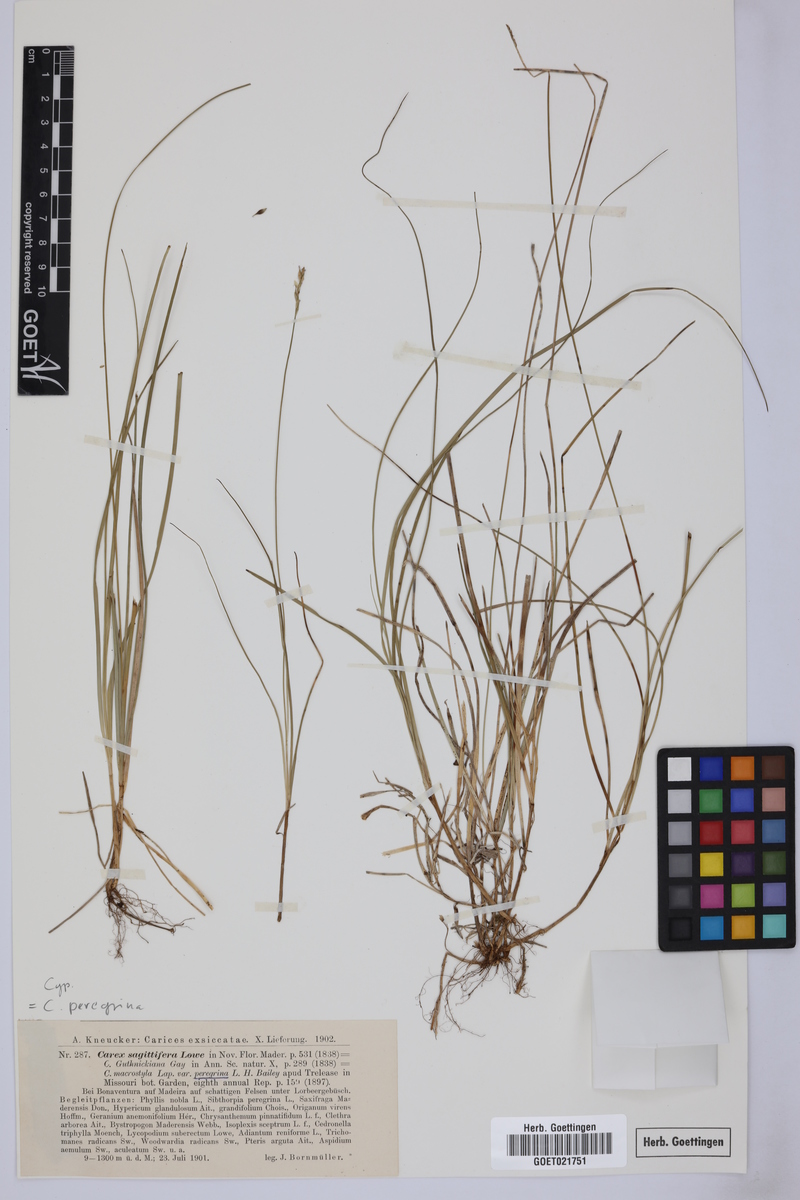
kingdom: Plantae
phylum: Tracheophyta
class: Liliopsida
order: Poales
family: Cyperaceae
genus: Carex
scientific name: Carex peregrina
